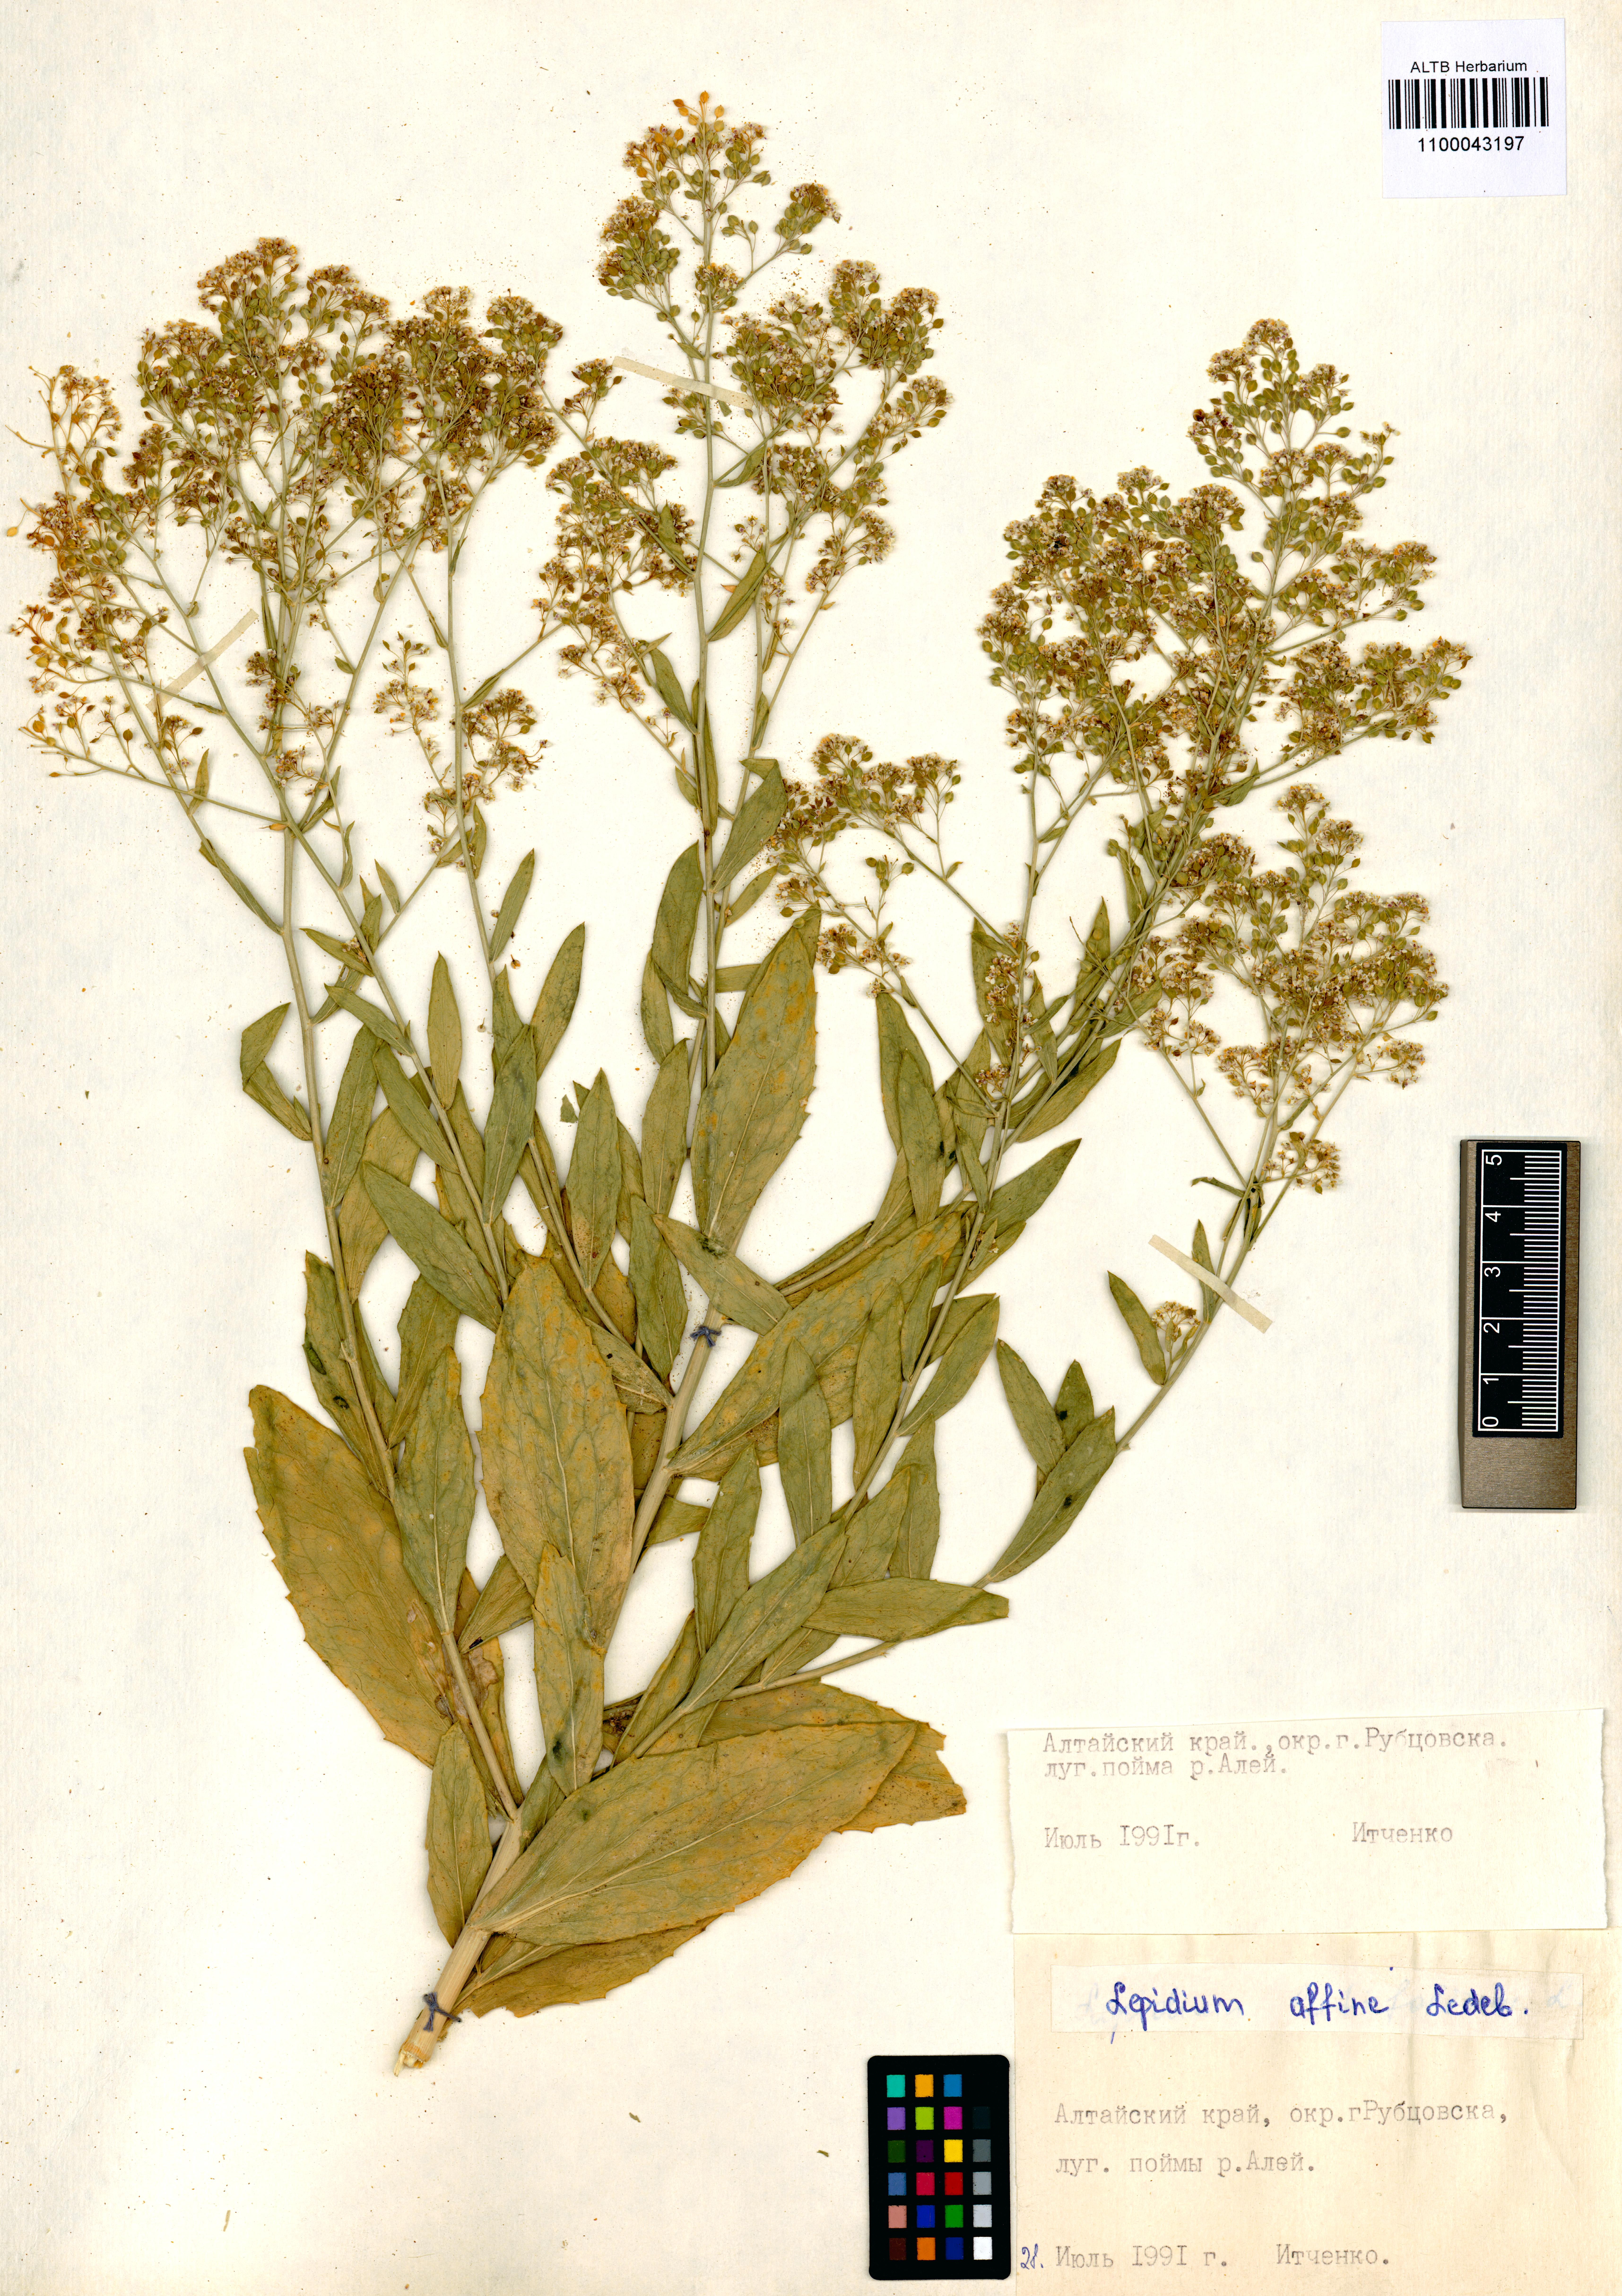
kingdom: Plantae
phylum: Tracheophyta
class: Magnoliopsida
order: Brassicales
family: Brassicaceae
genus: Lepidium
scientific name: Lepidium latifolium
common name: Dittander
